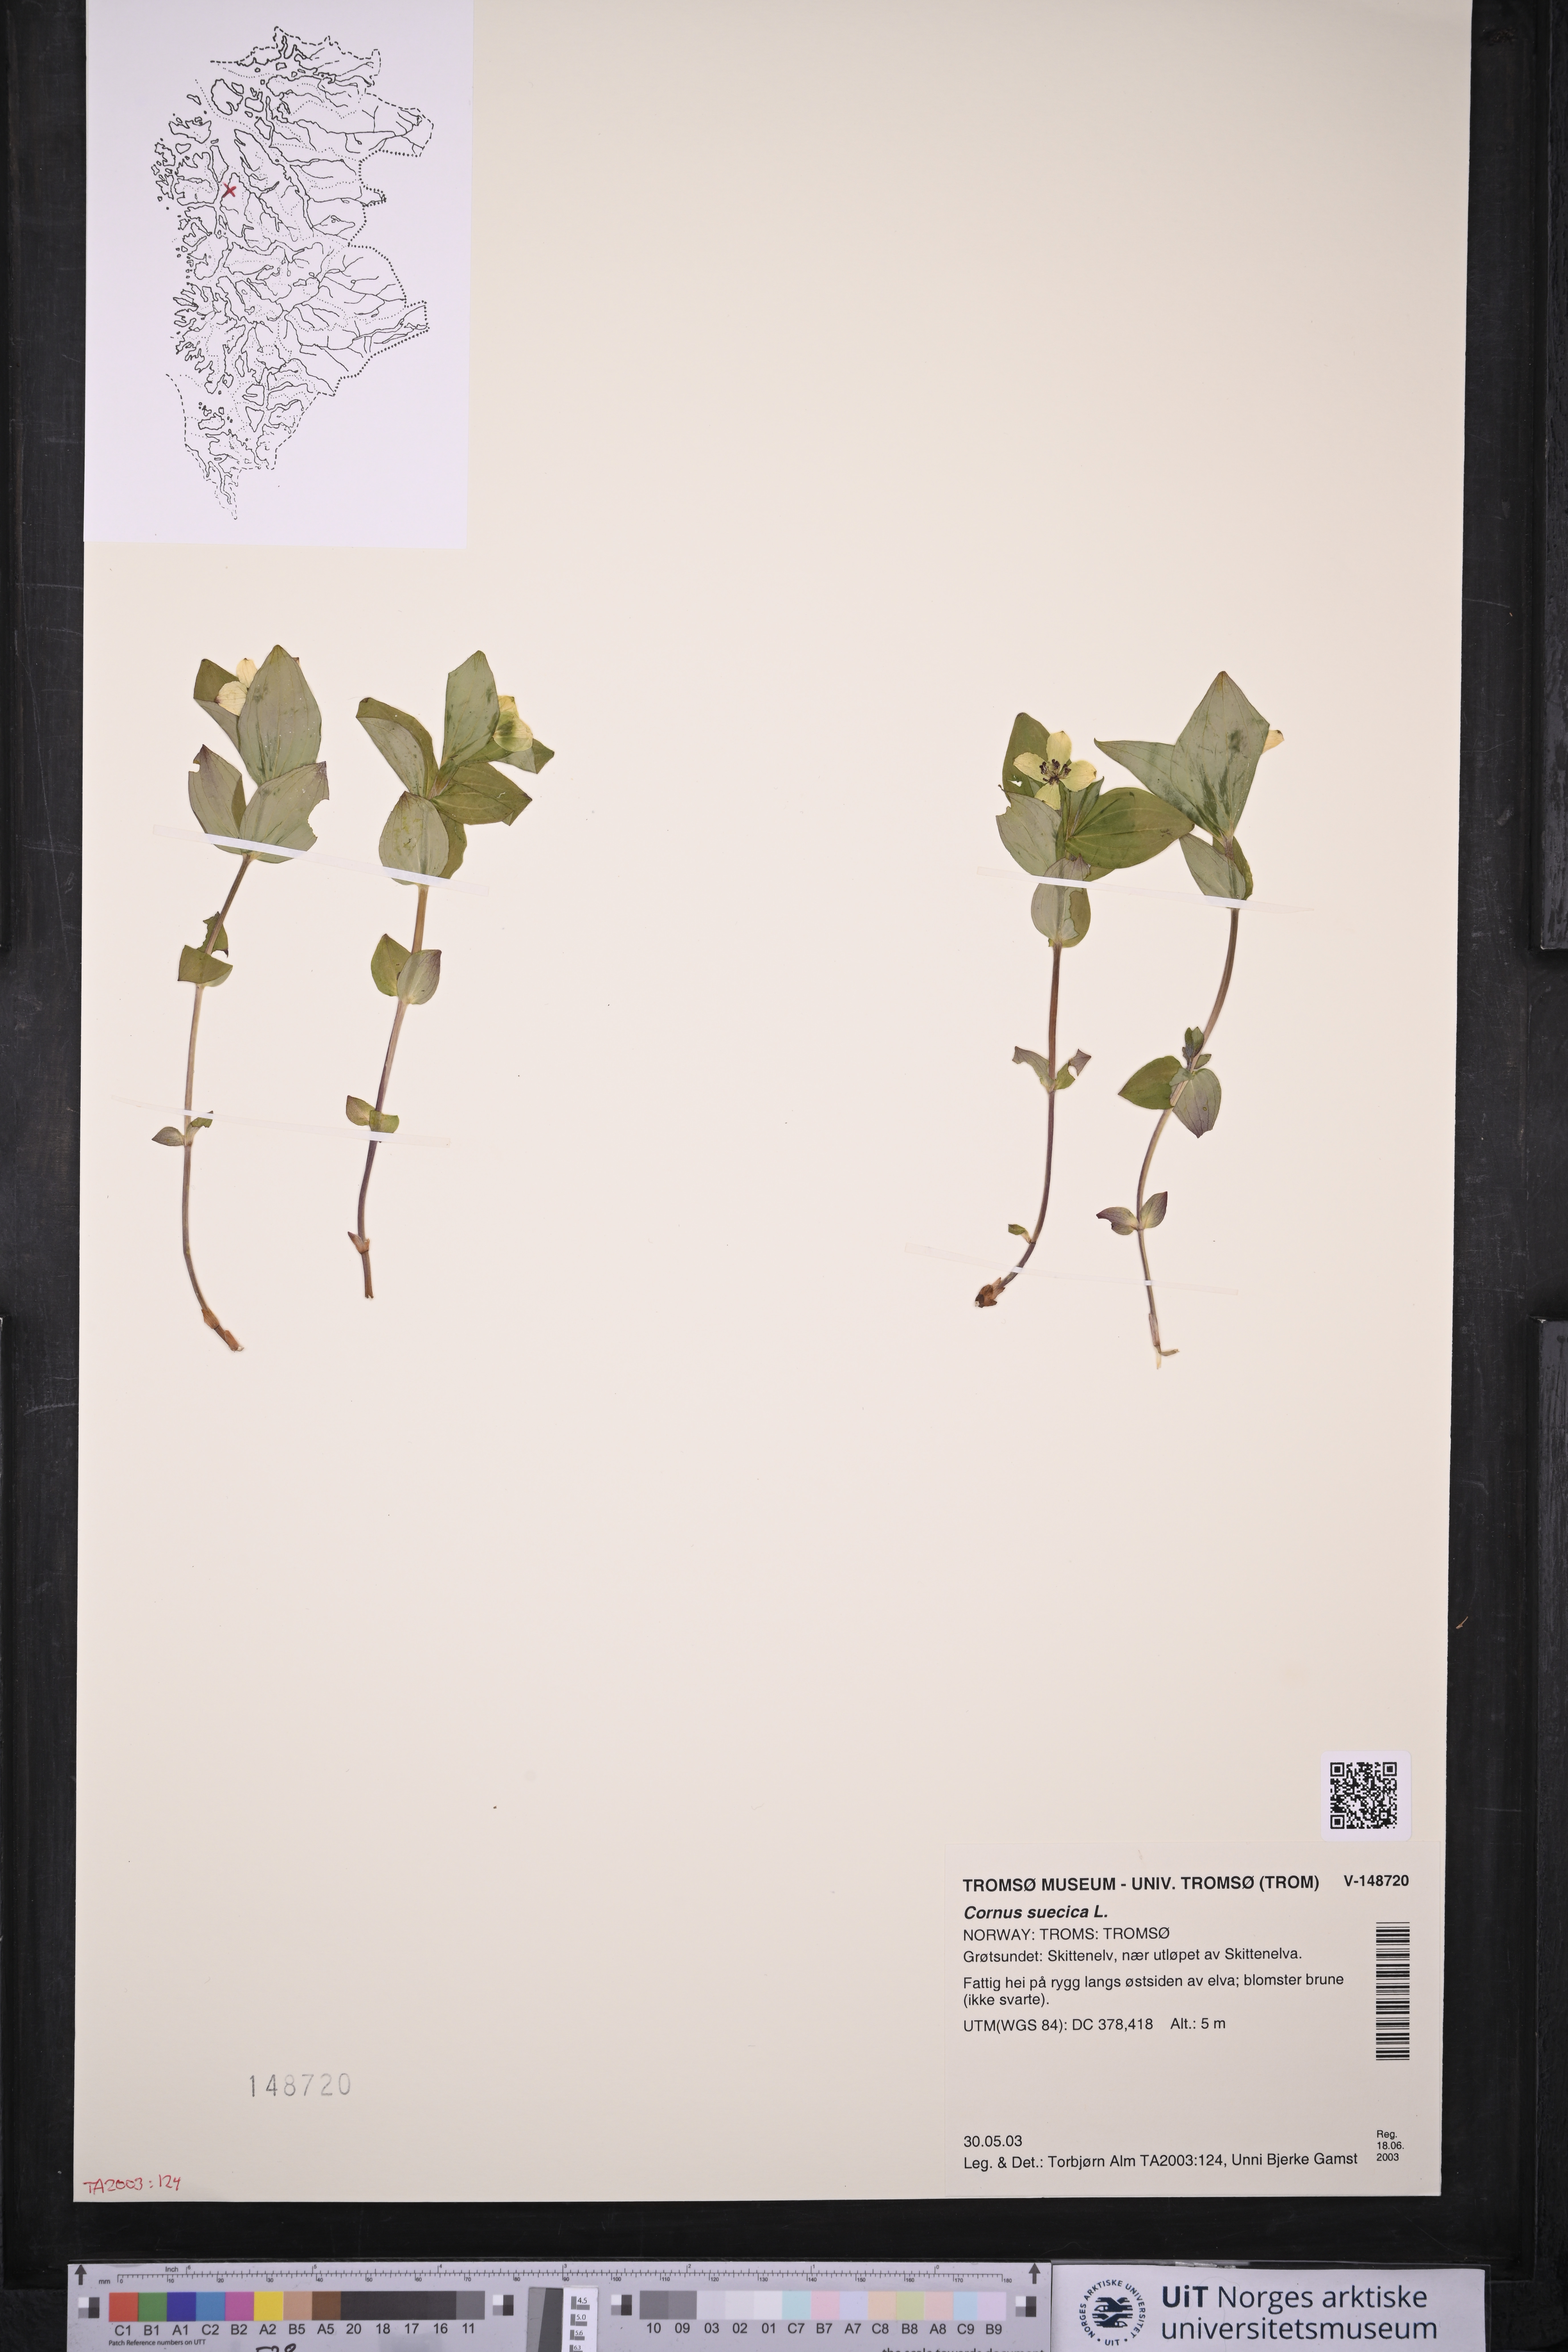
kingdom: Plantae
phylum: Tracheophyta
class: Magnoliopsida
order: Cornales
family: Cornaceae
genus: Cornus
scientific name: Cornus suecica
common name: Dwarf cornel
